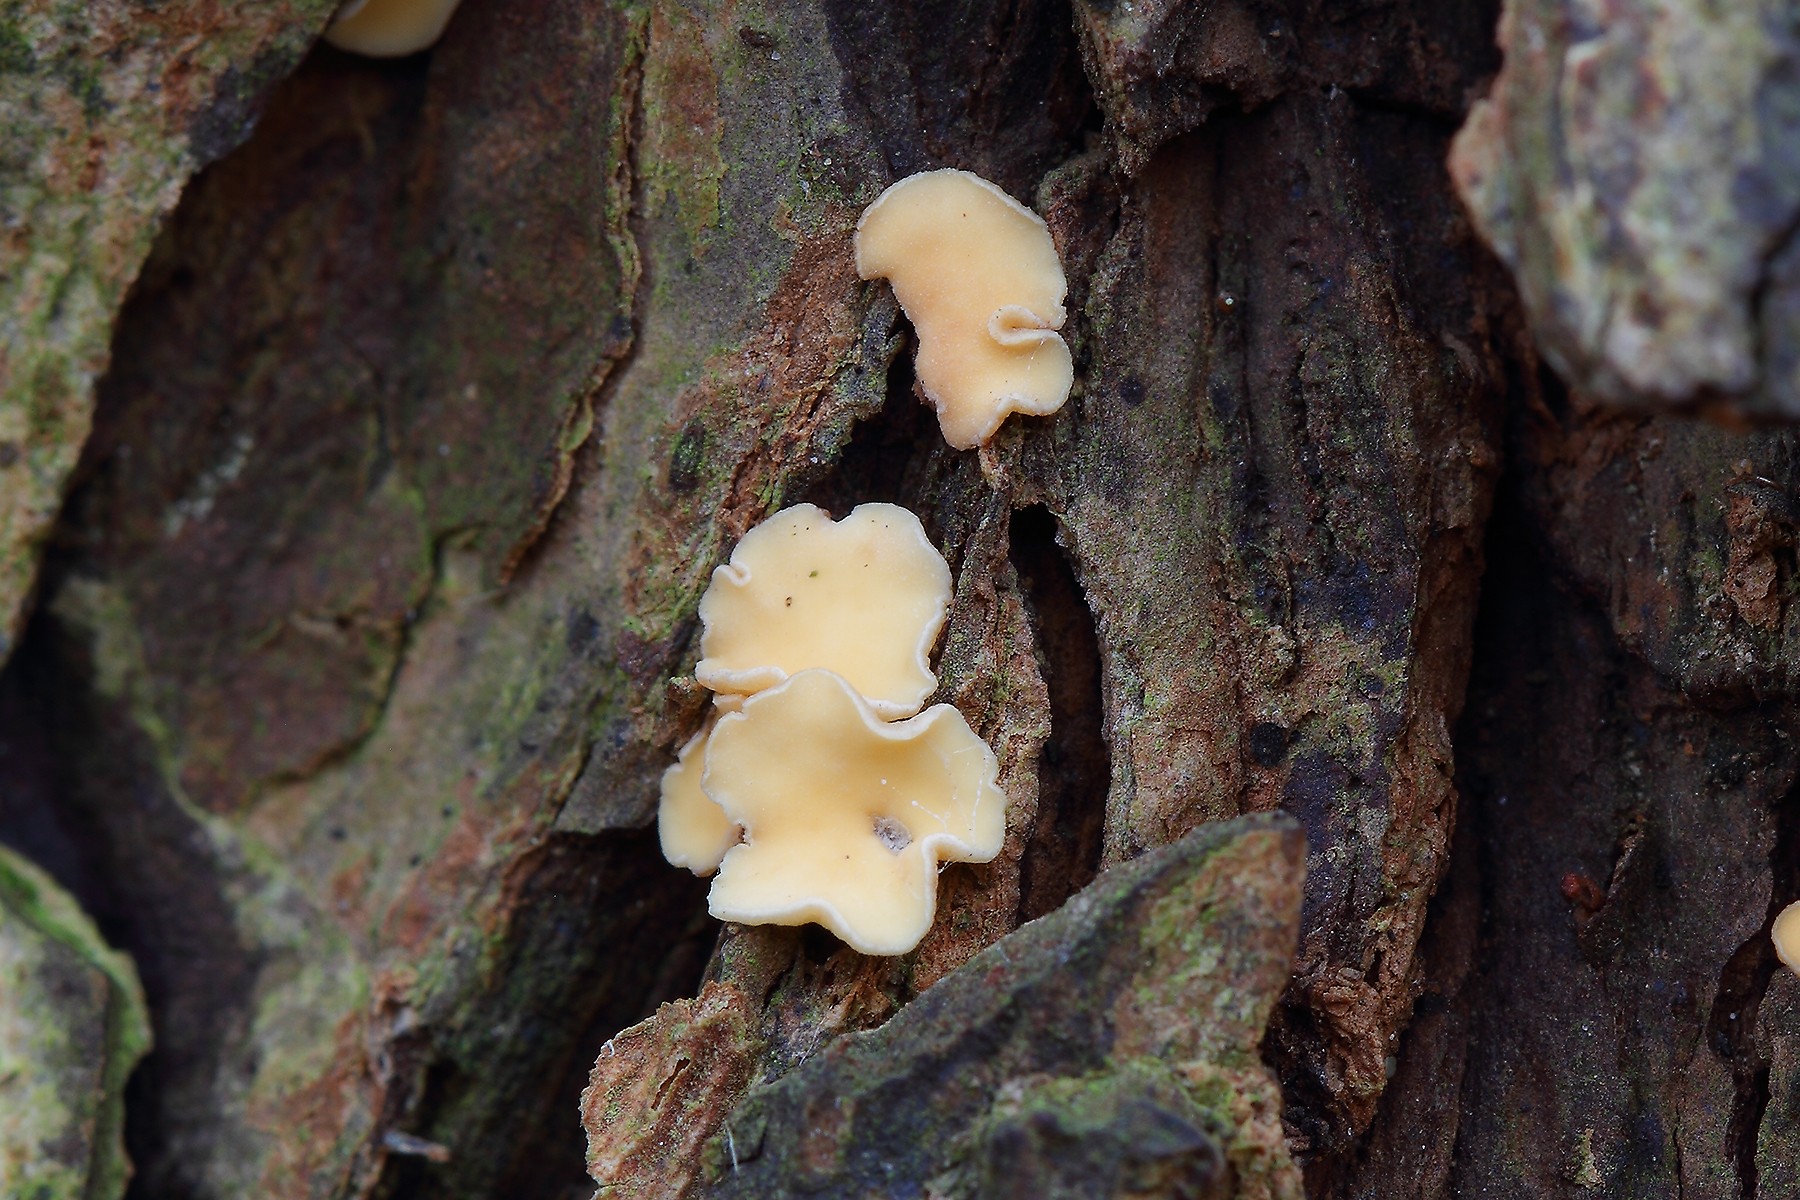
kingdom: Fungi
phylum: Ascomycota
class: Leotiomycetes
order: Helotiales
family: Helotiaceae
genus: Hymenoscyphus
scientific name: Hymenoscyphus calyculus
